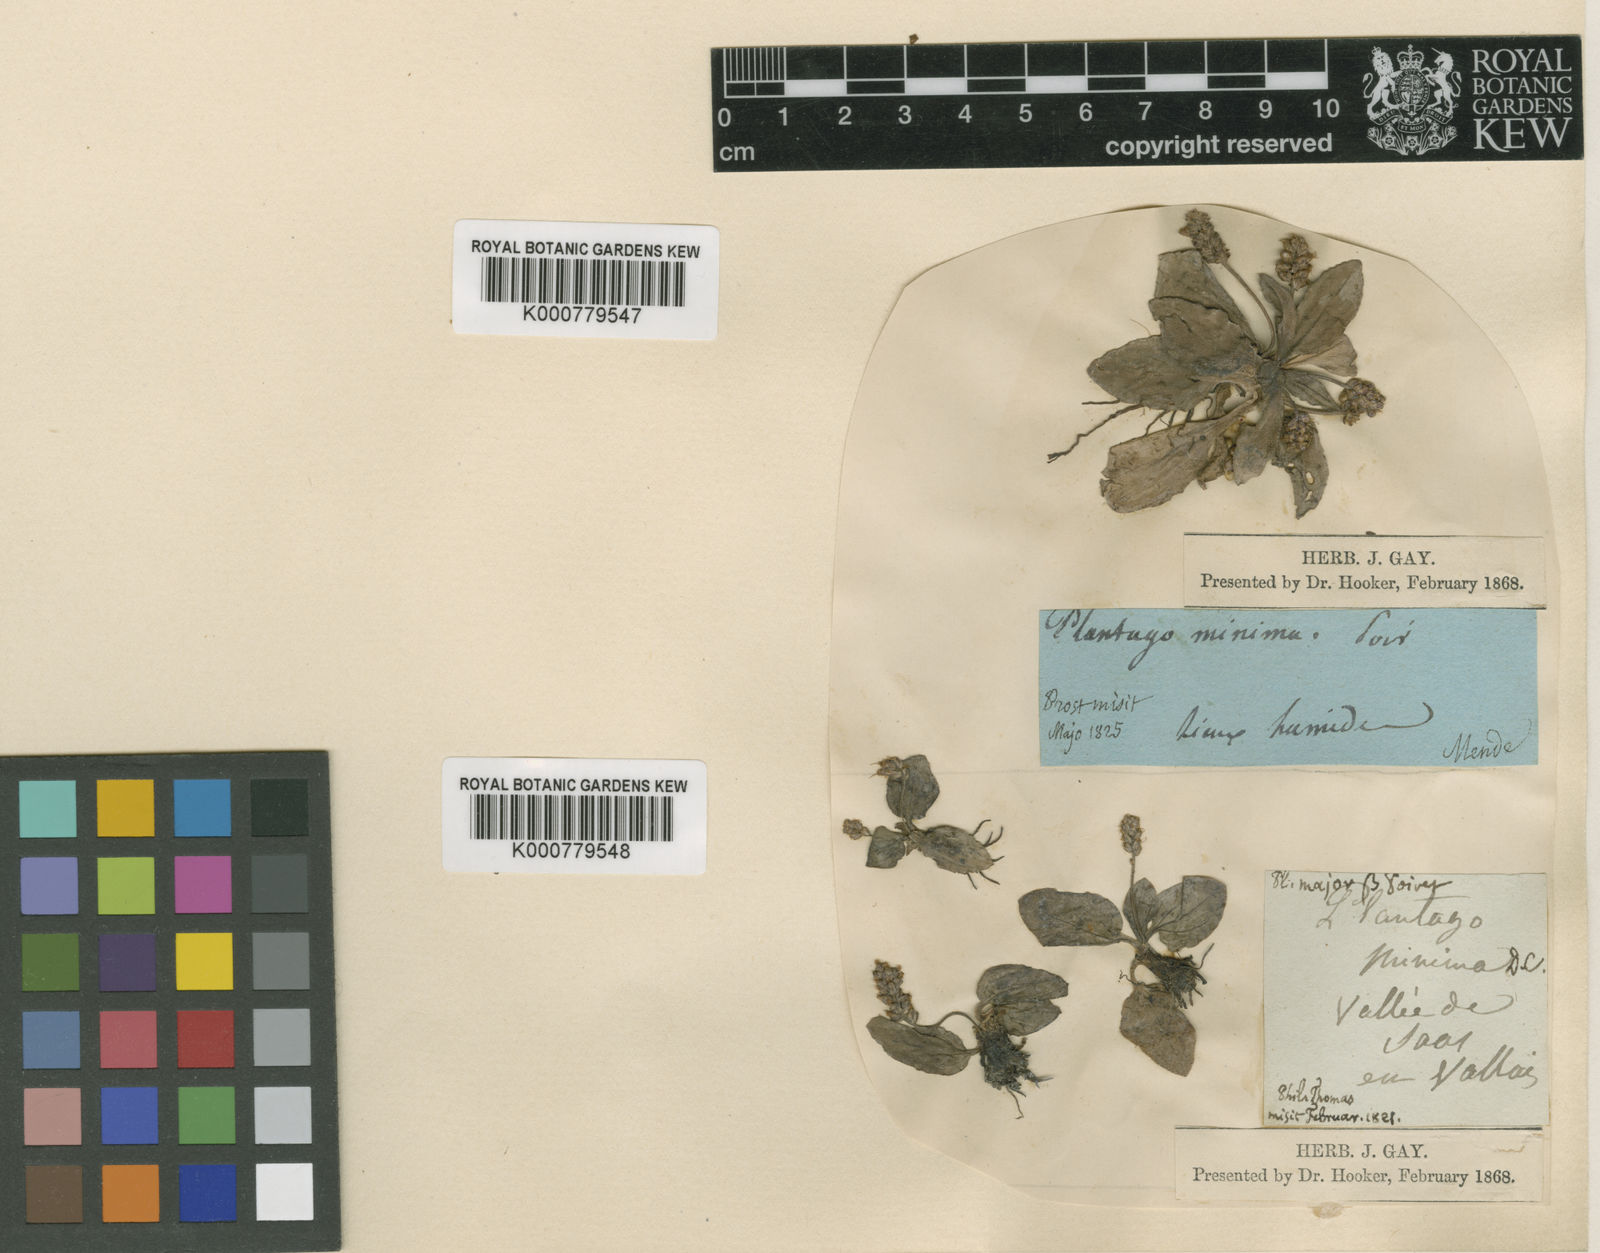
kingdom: Plantae
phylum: Tracheophyta
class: Magnoliopsida
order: Lamiales
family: Plantaginaceae
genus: Plantago
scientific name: Plantago major
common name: Common plantain
